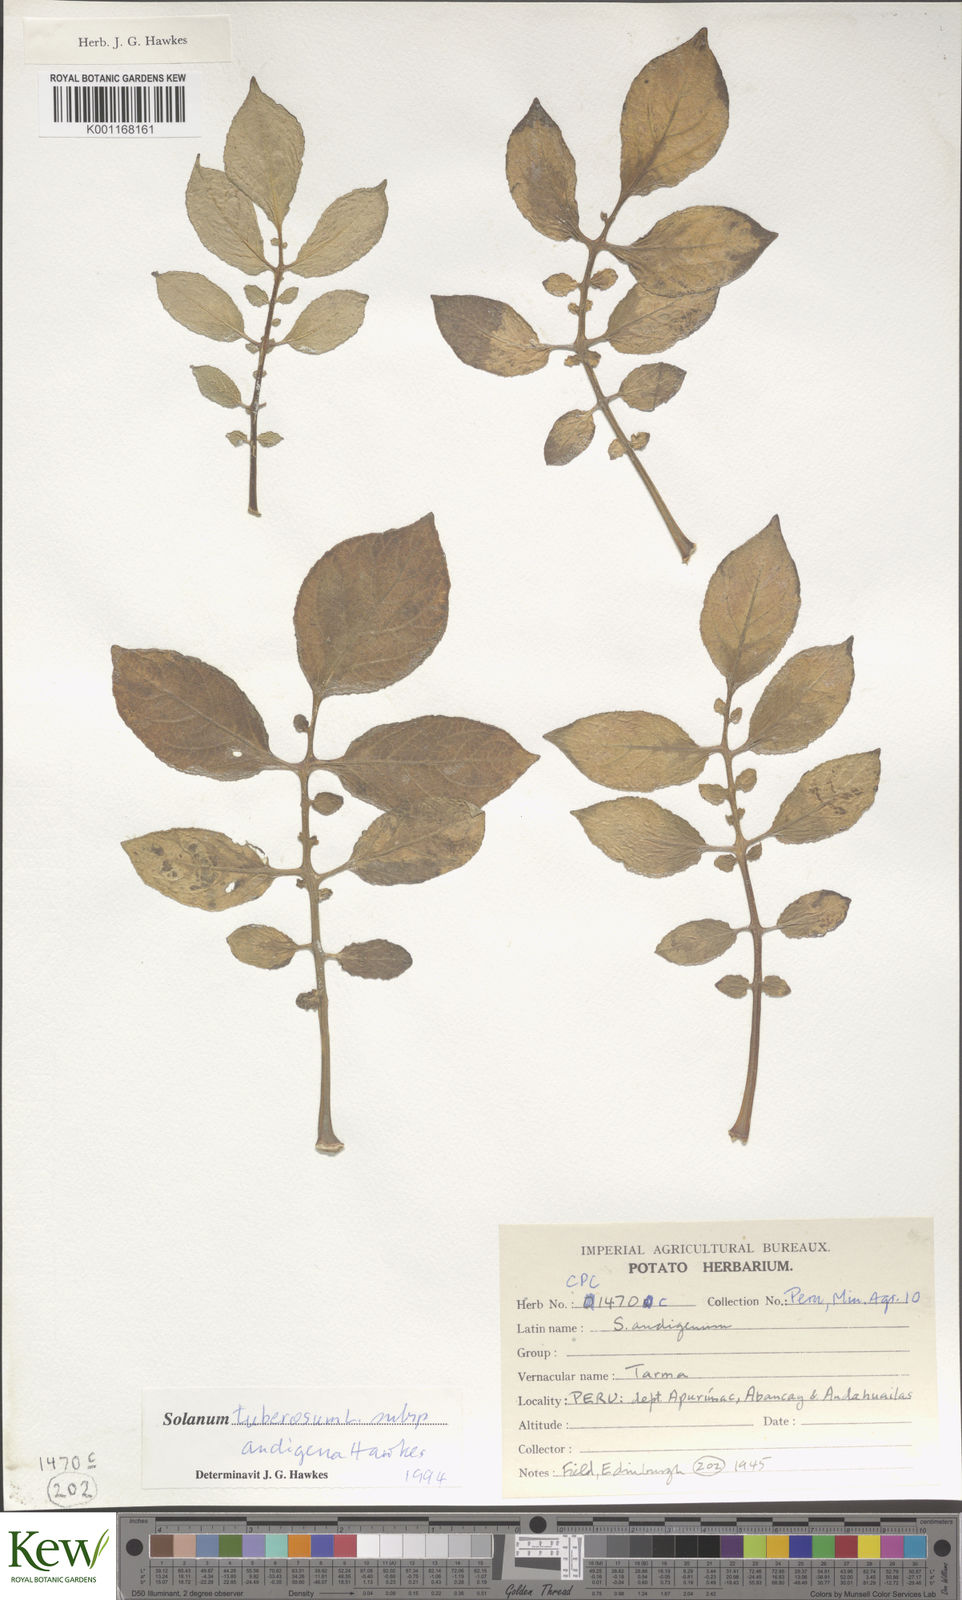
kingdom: Plantae
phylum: Tracheophyta
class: Magnoliopsida
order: Solanales
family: Solanaceae
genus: Solanum
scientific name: Solanum tuberosum
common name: Potato
